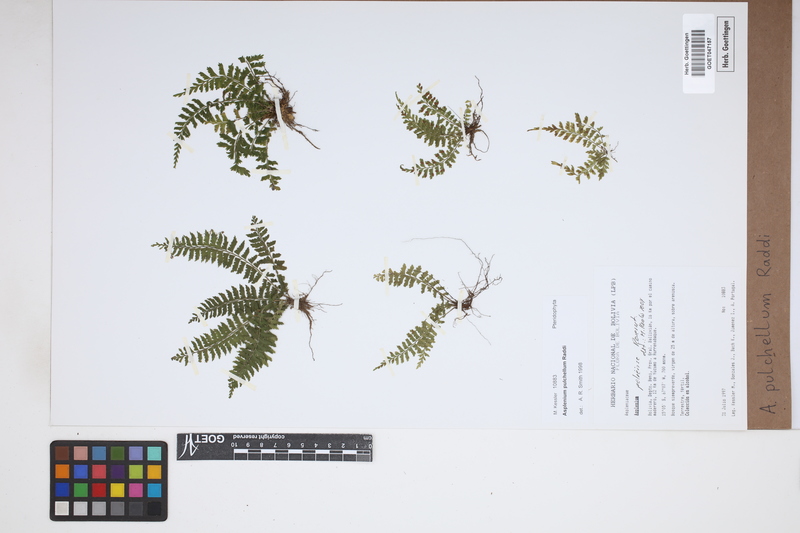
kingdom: Plantae
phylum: Tracheophyta
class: Polypodiopsida
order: Polypodiales
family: Aspleniaceae
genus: Asplenium
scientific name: Asplenium pulchellum
